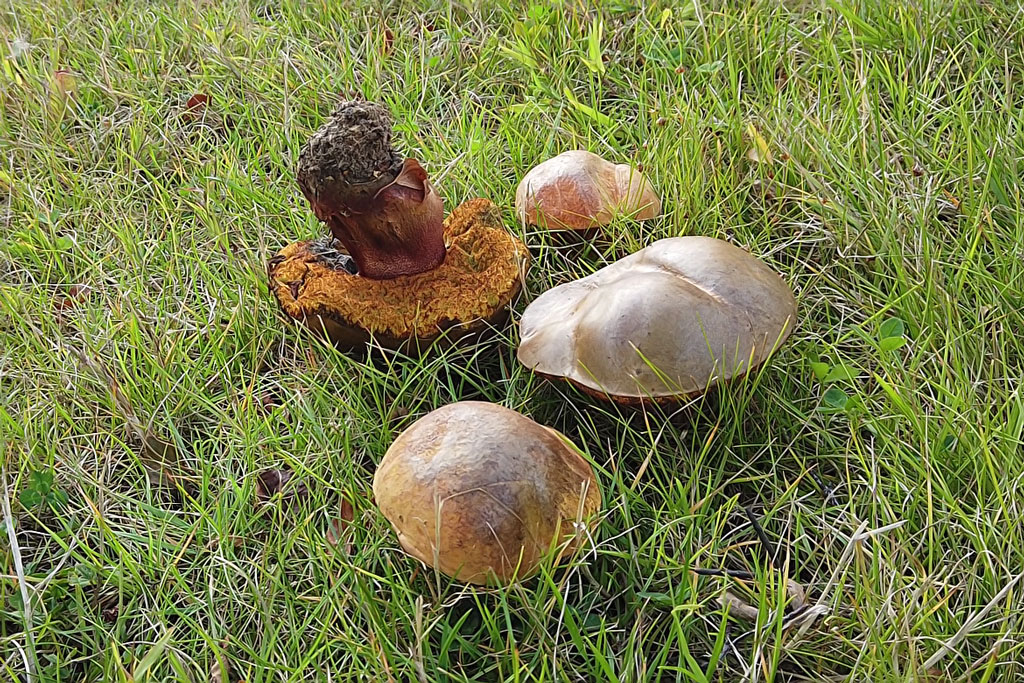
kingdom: Fungi
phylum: Basidiomycota
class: Agaricomycetes
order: Boletales
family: Boletaceae
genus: Suillellus
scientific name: Suillellus luridus
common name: netstokket indigorørhat
